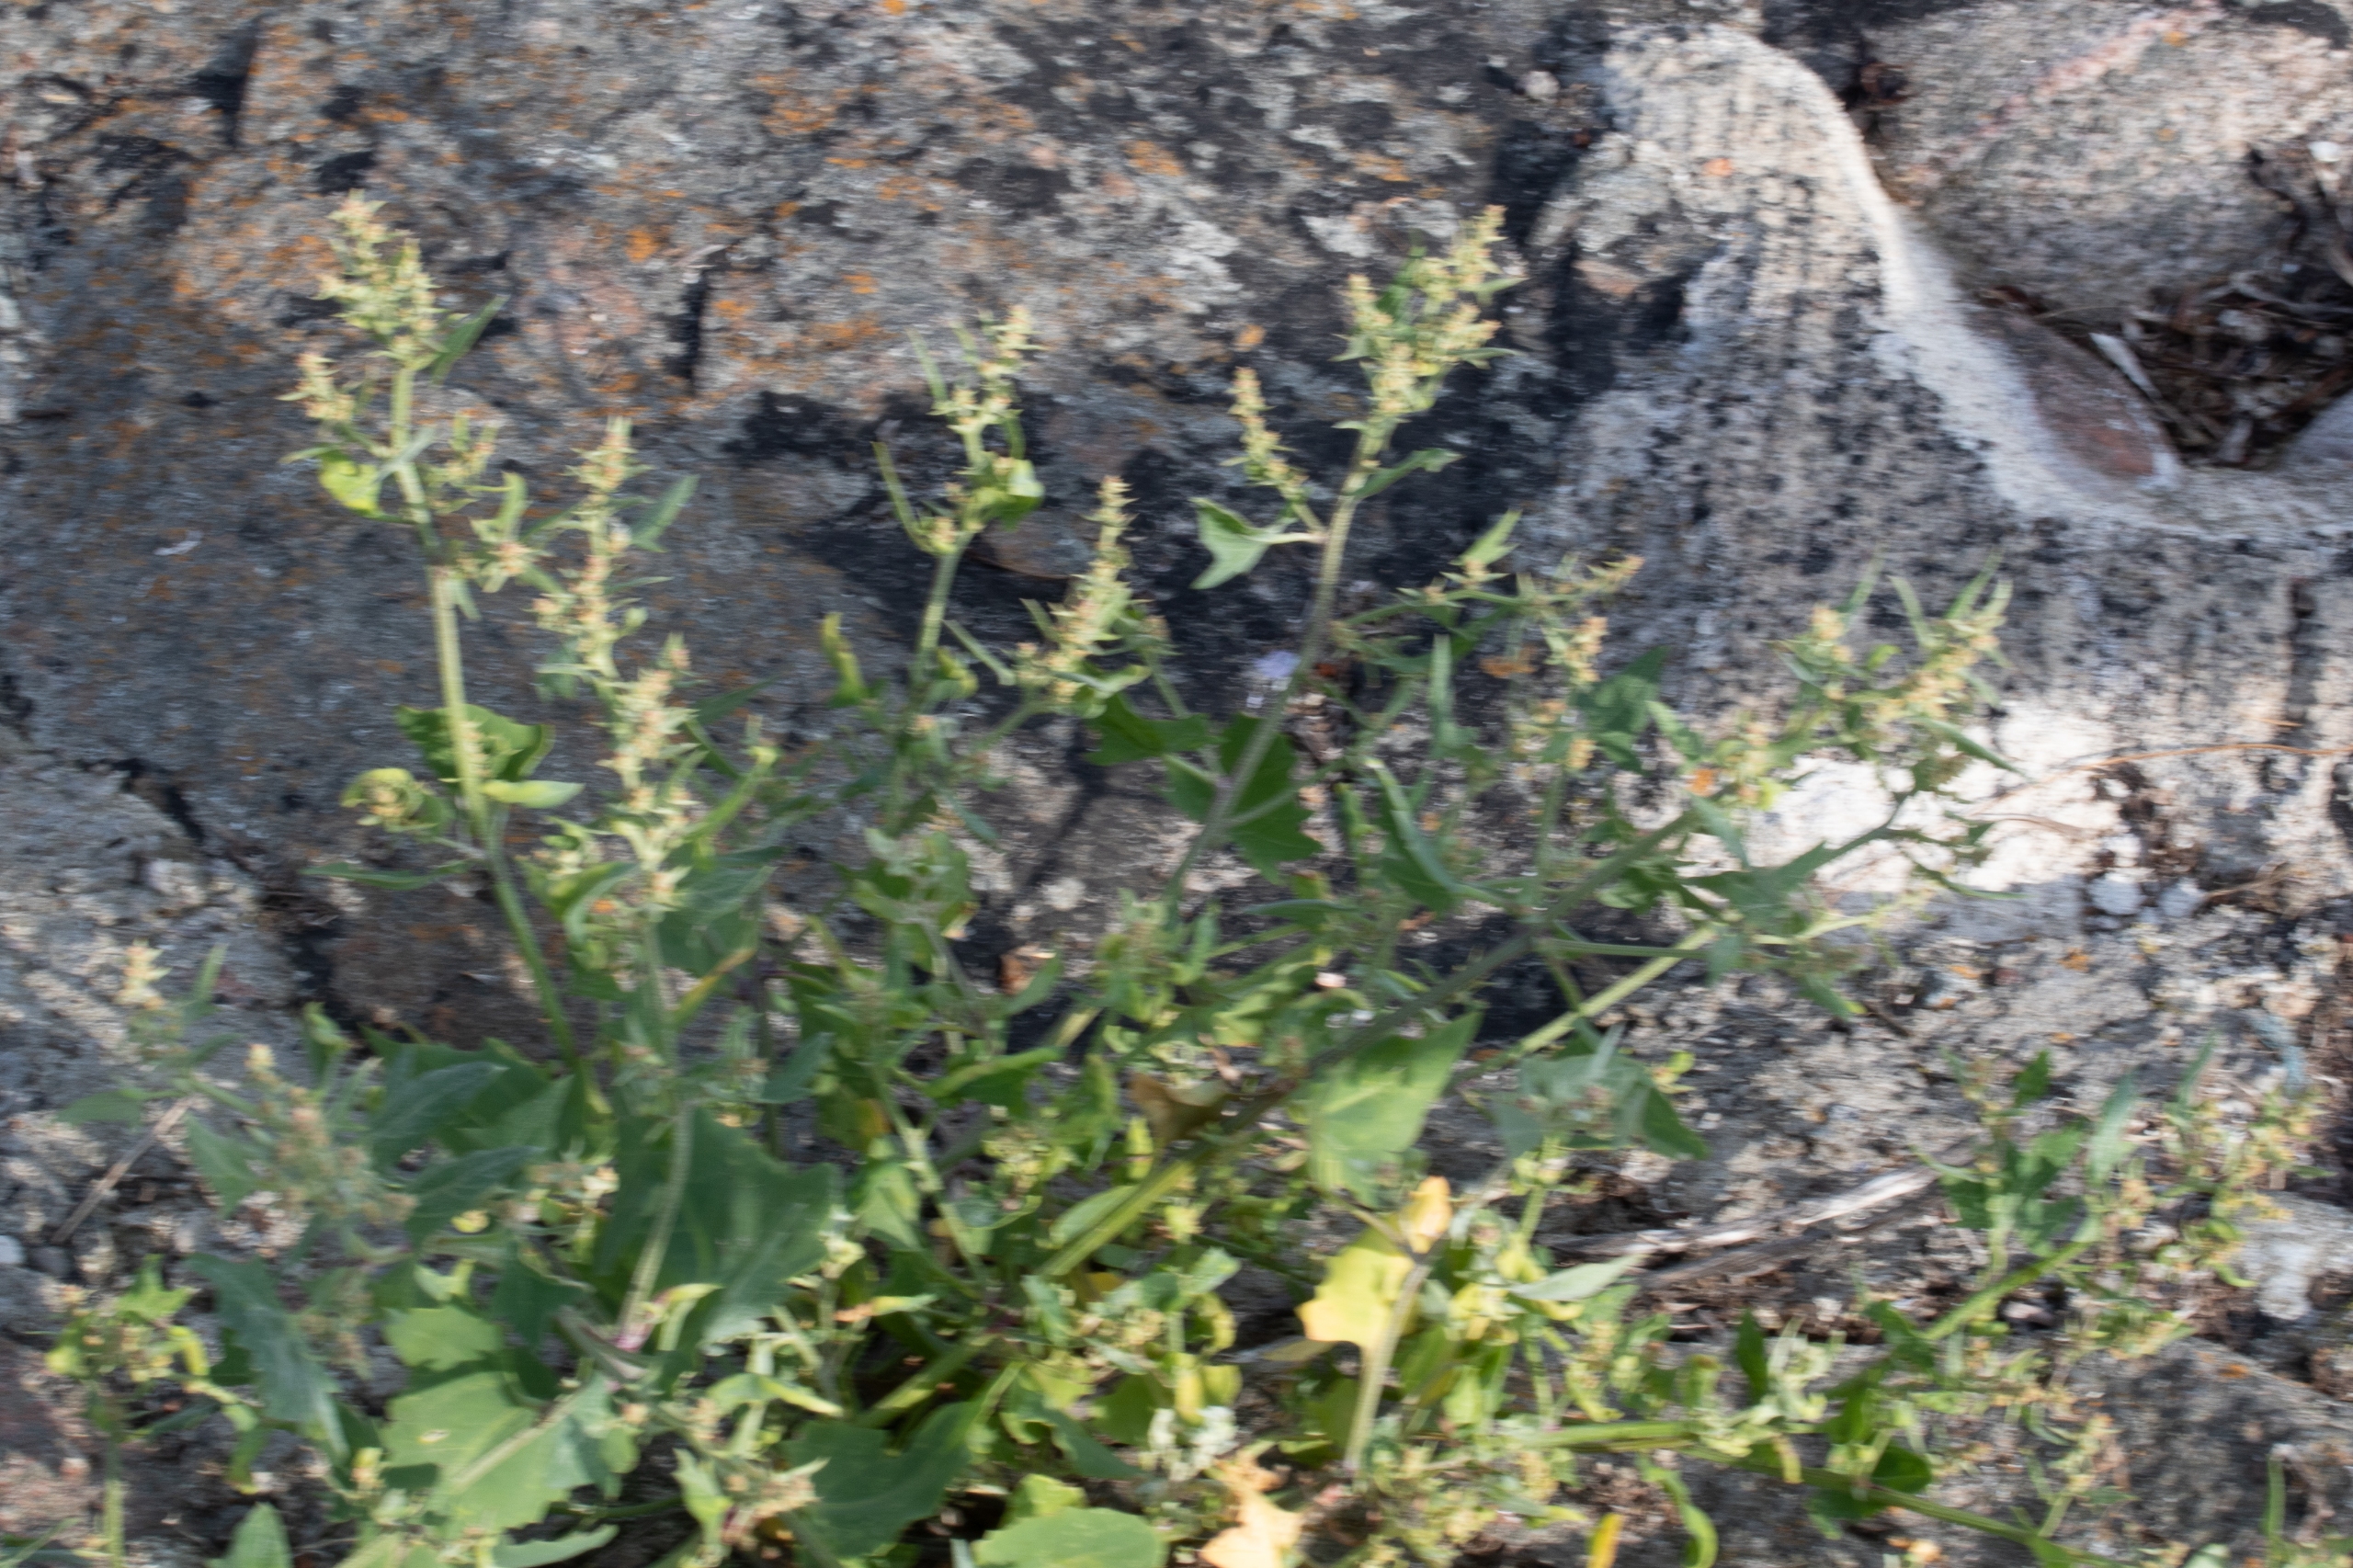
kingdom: Plantae
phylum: Tracheophyta
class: Magnoliopsida
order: Caryophyllales
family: Amaranthaceae
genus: Atriplex
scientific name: Atriplex prostrata
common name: Spyd-mælde
